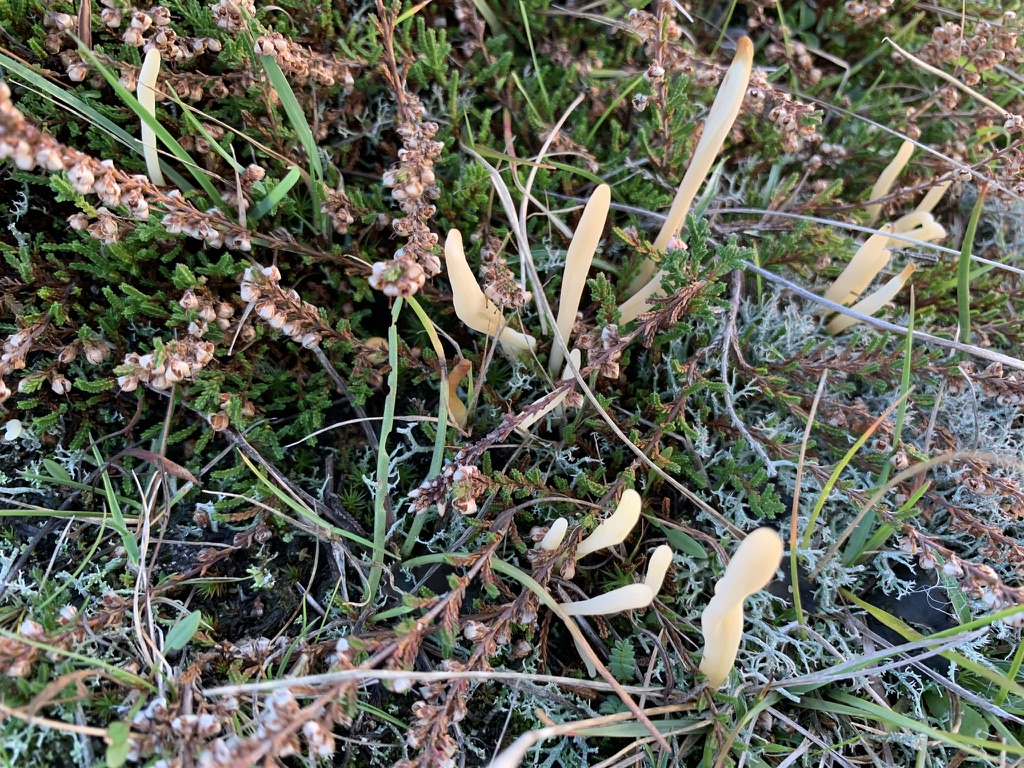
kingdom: Fungi
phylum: Basidiomycota
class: Agaricomycetes
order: Agaricales
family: Clavariaceae
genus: Clavaria
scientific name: Clavaria argillacea
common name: lerfarvet køllesvamp
